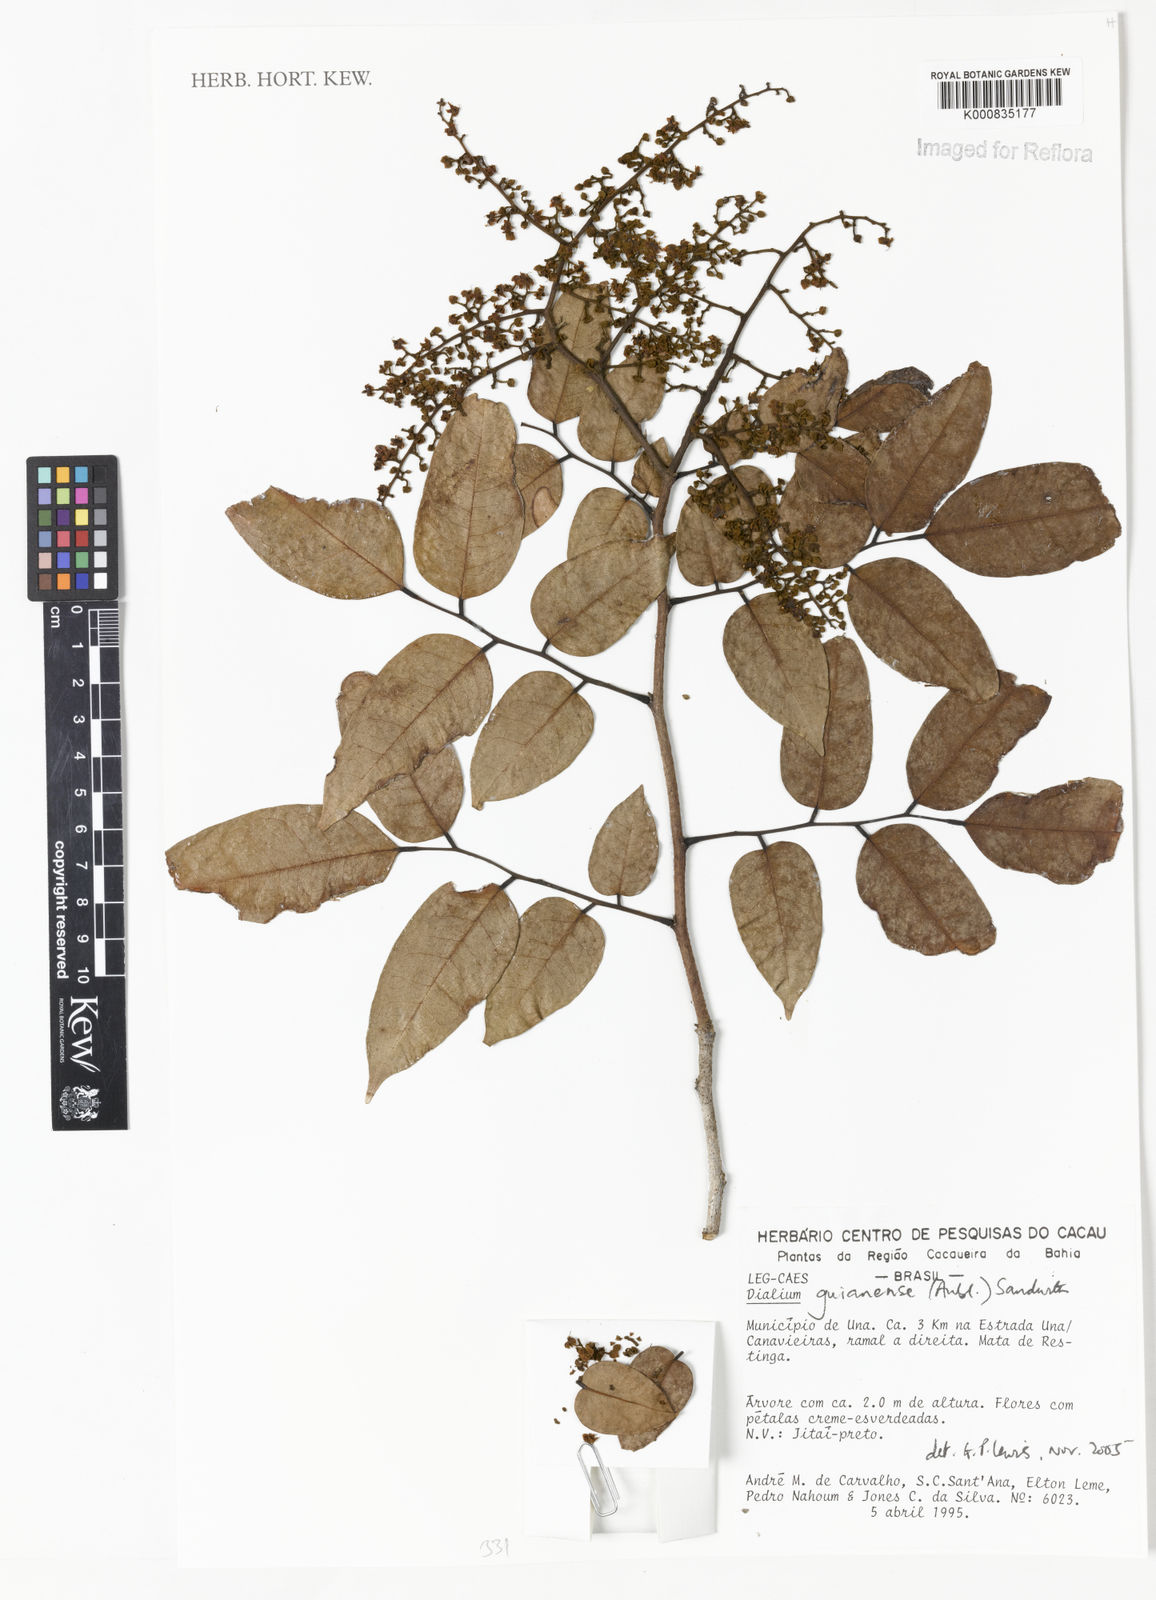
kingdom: Plantae
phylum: Tracheophyta
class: Magnoliopsida
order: Fabales
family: Fabaceae
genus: Dialium
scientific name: Dialium guianense
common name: Ironwood
